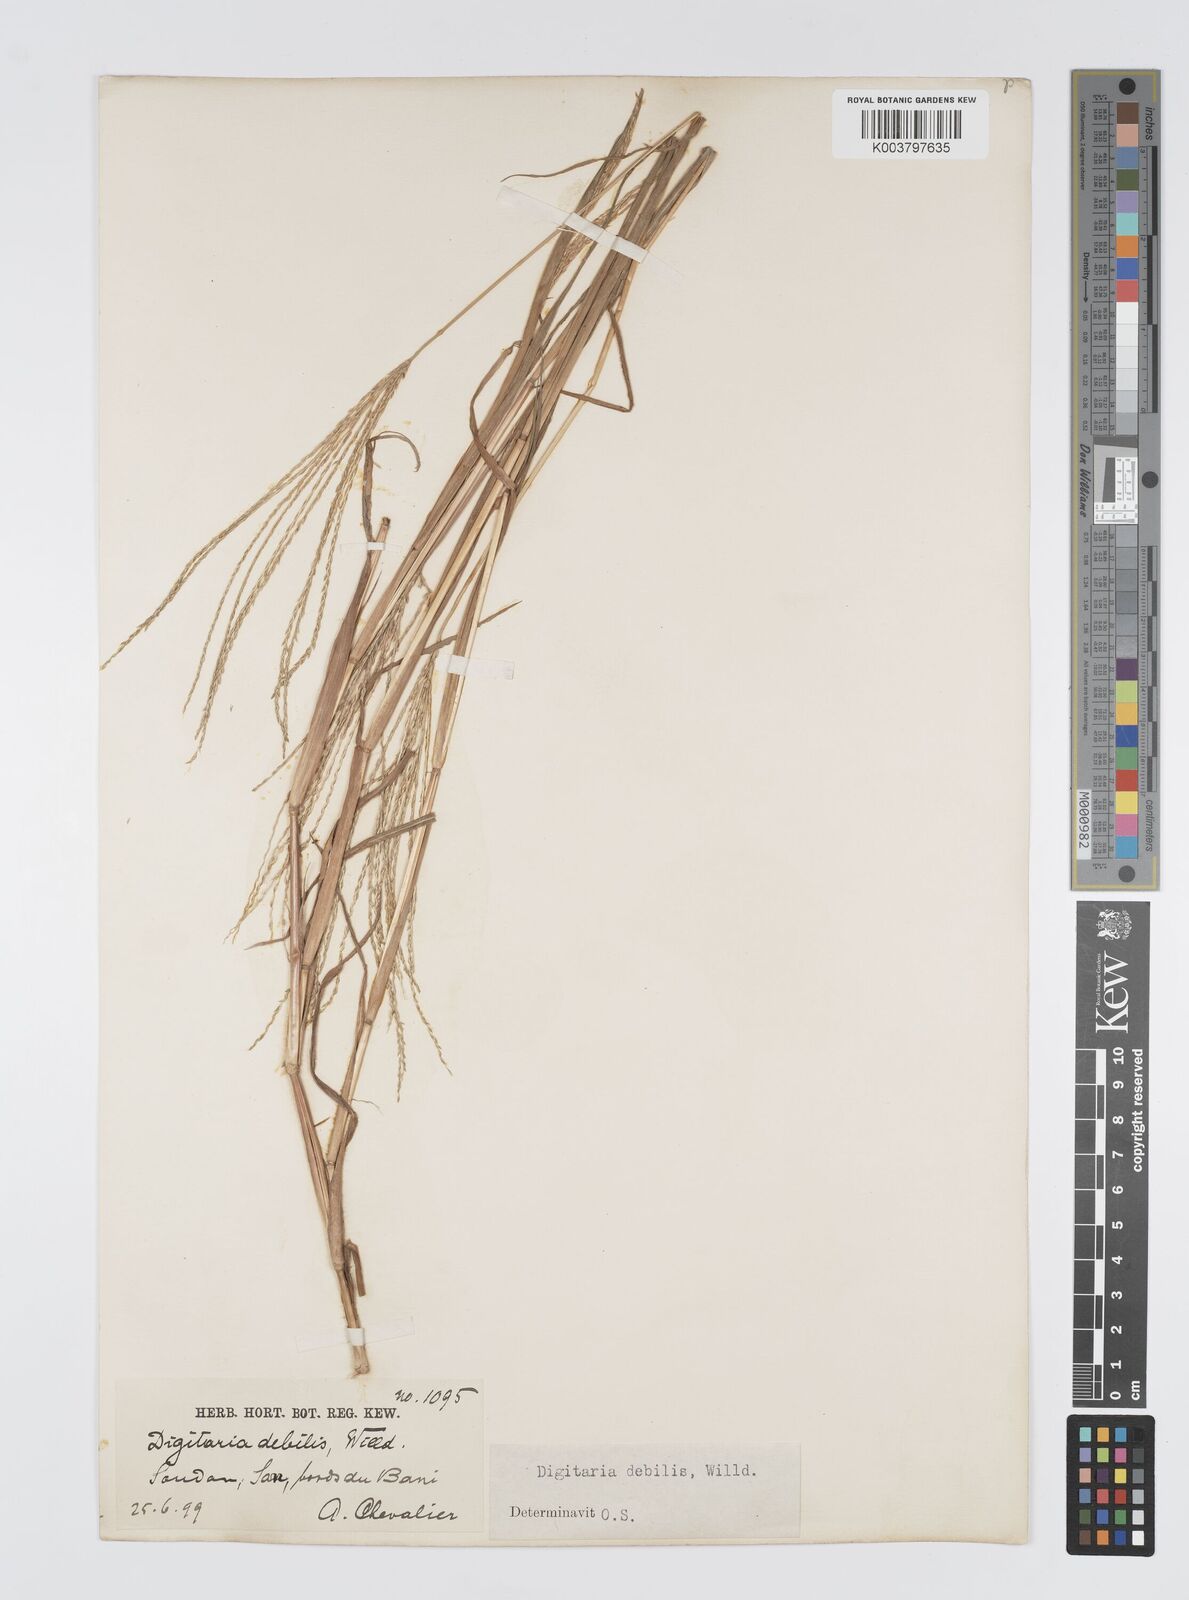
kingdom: Plantae
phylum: Tracheophyta
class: Liliopsida
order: Poales
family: Poaceae
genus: Digitaria
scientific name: Digitaria debilis
